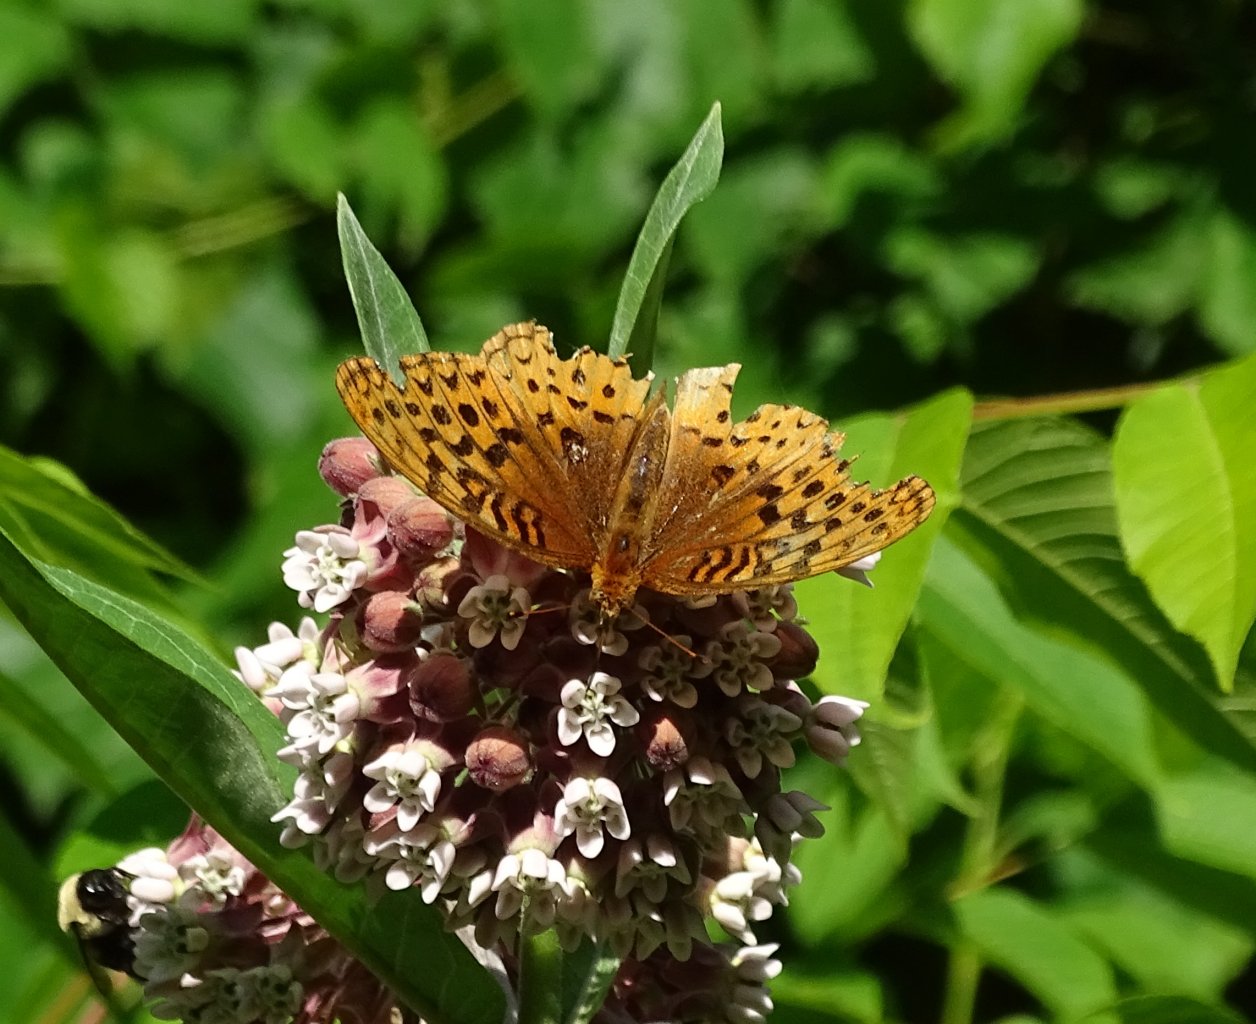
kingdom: Animalia
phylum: Arthropoda
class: Insecta
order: Lepidoptera
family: Nymphalidae
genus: Speyeria
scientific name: Speyeria cybele
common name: Great Spangled Fritillary
